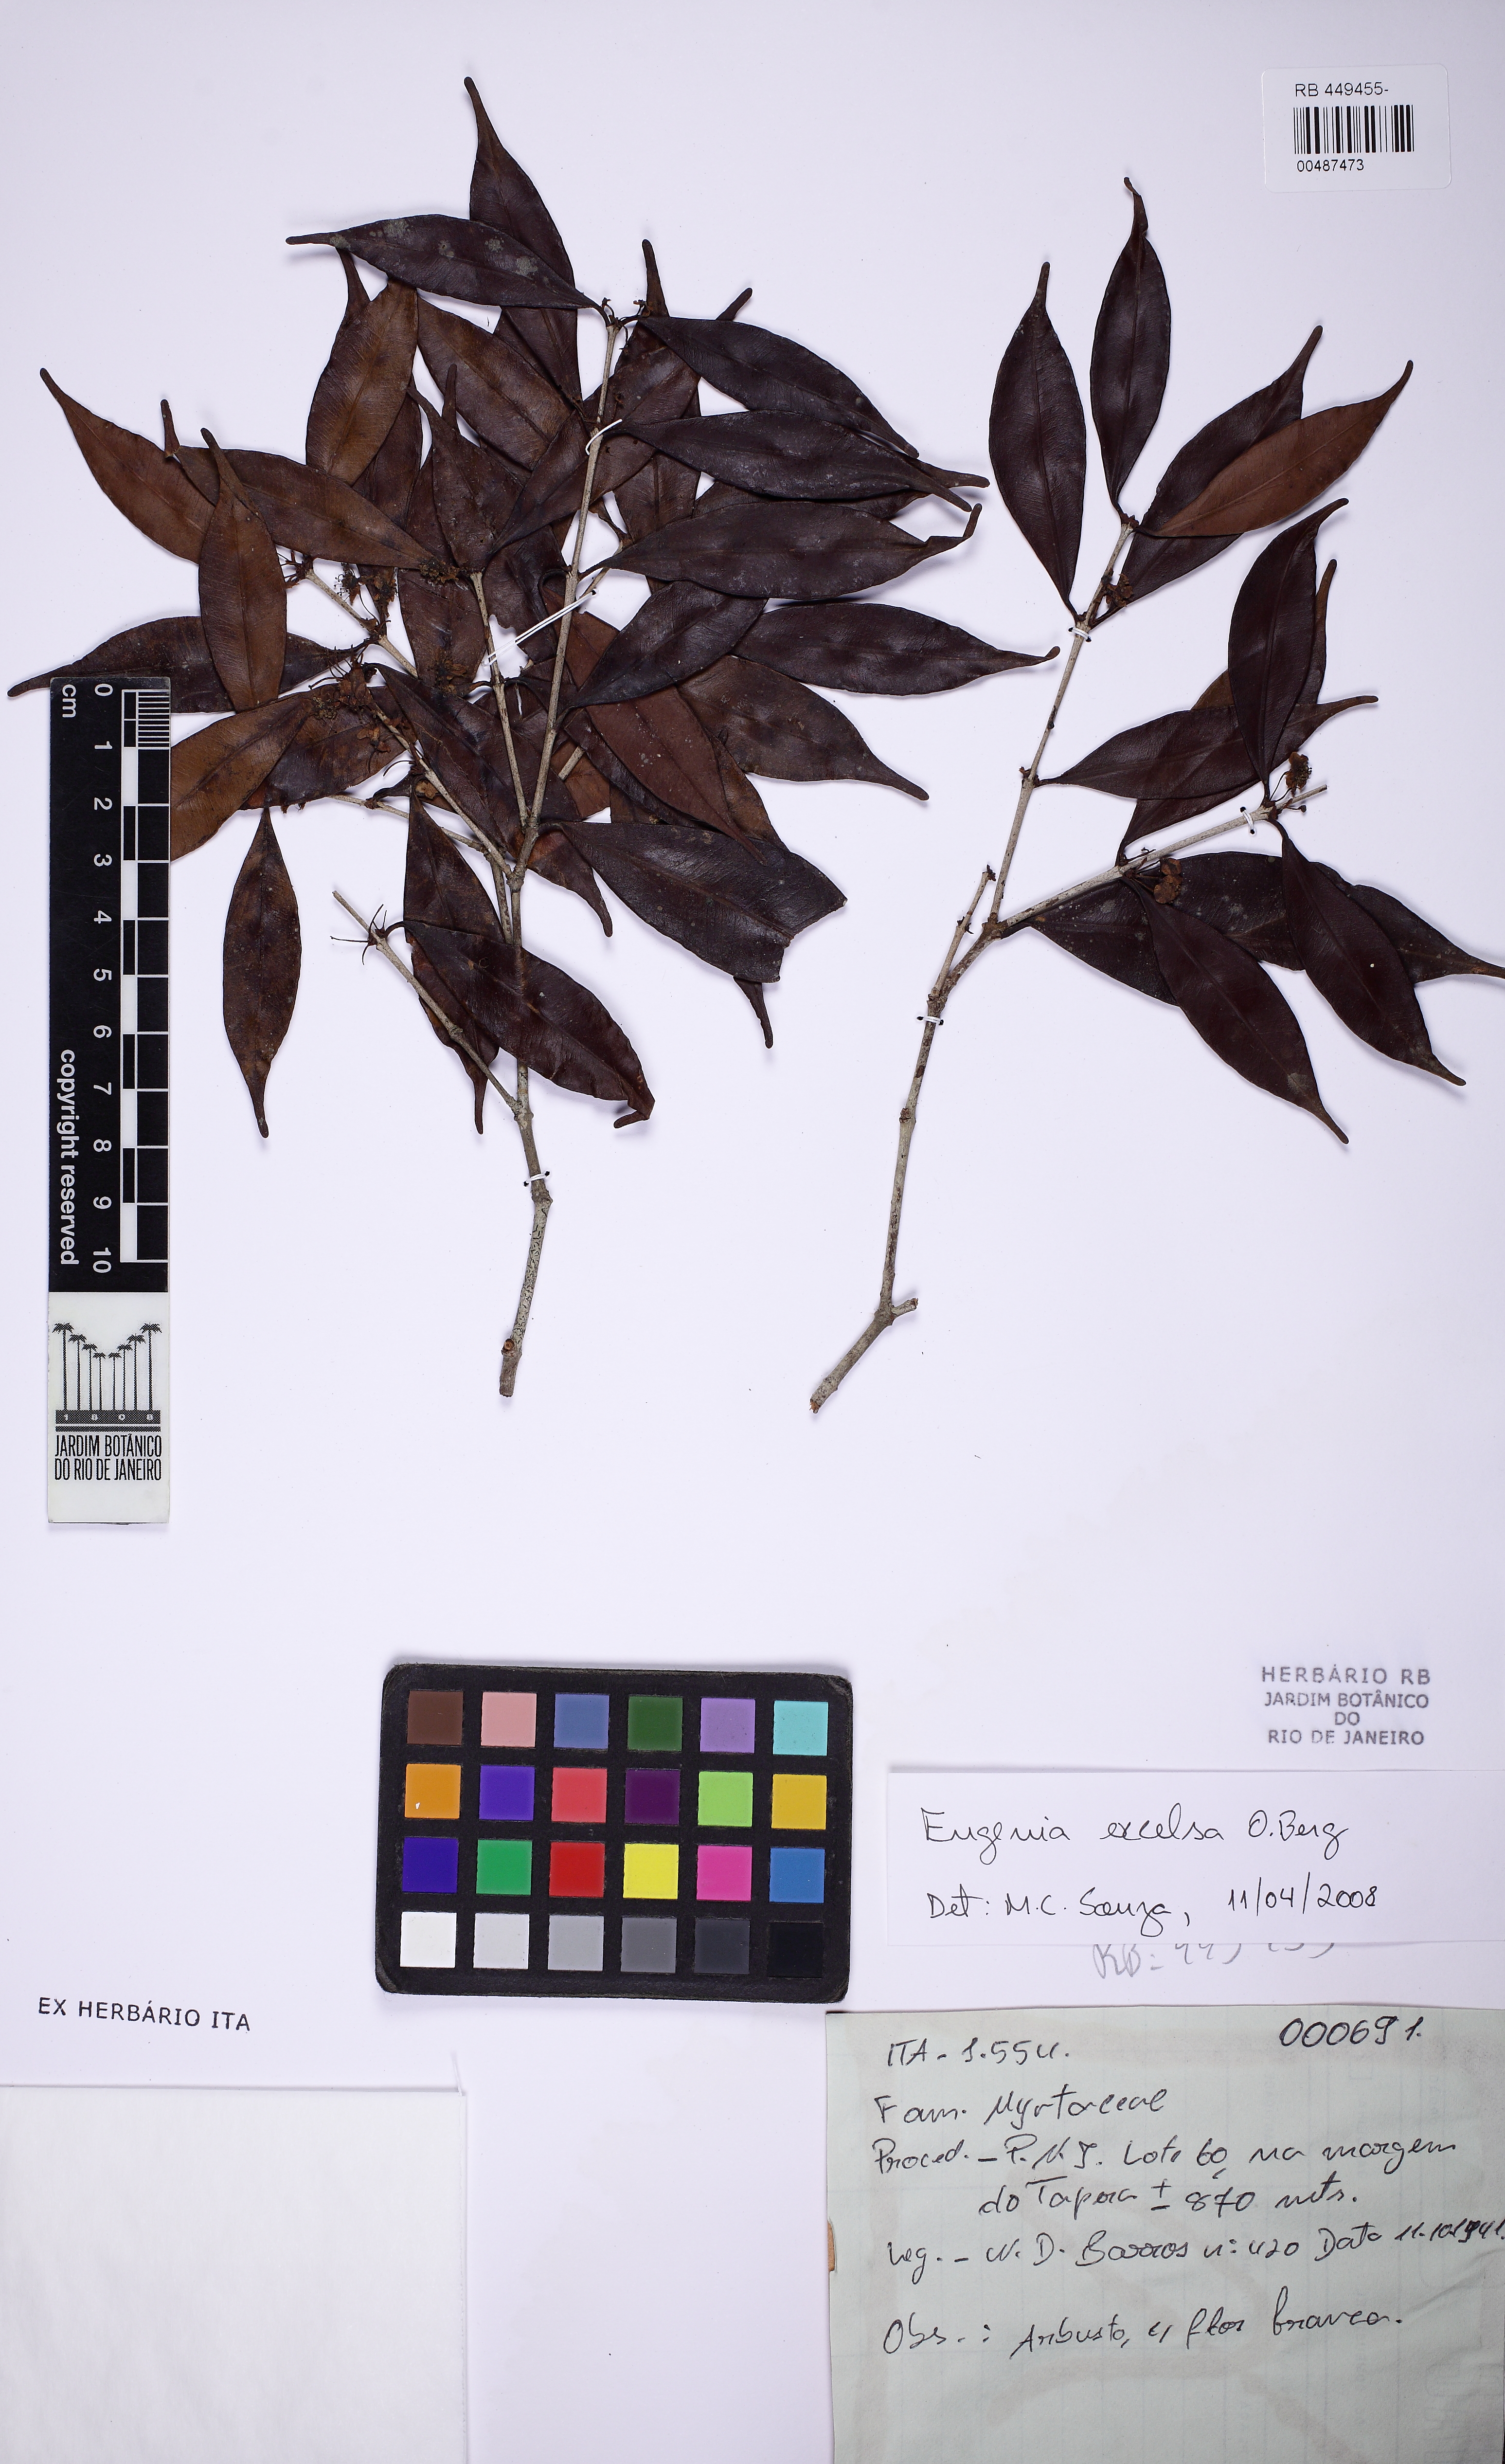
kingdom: Plantae
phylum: Tracheophyta
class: Magnoliopsida
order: Myrtales
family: Myrtaceae
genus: Eugenia
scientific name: Eugenia excelsa
